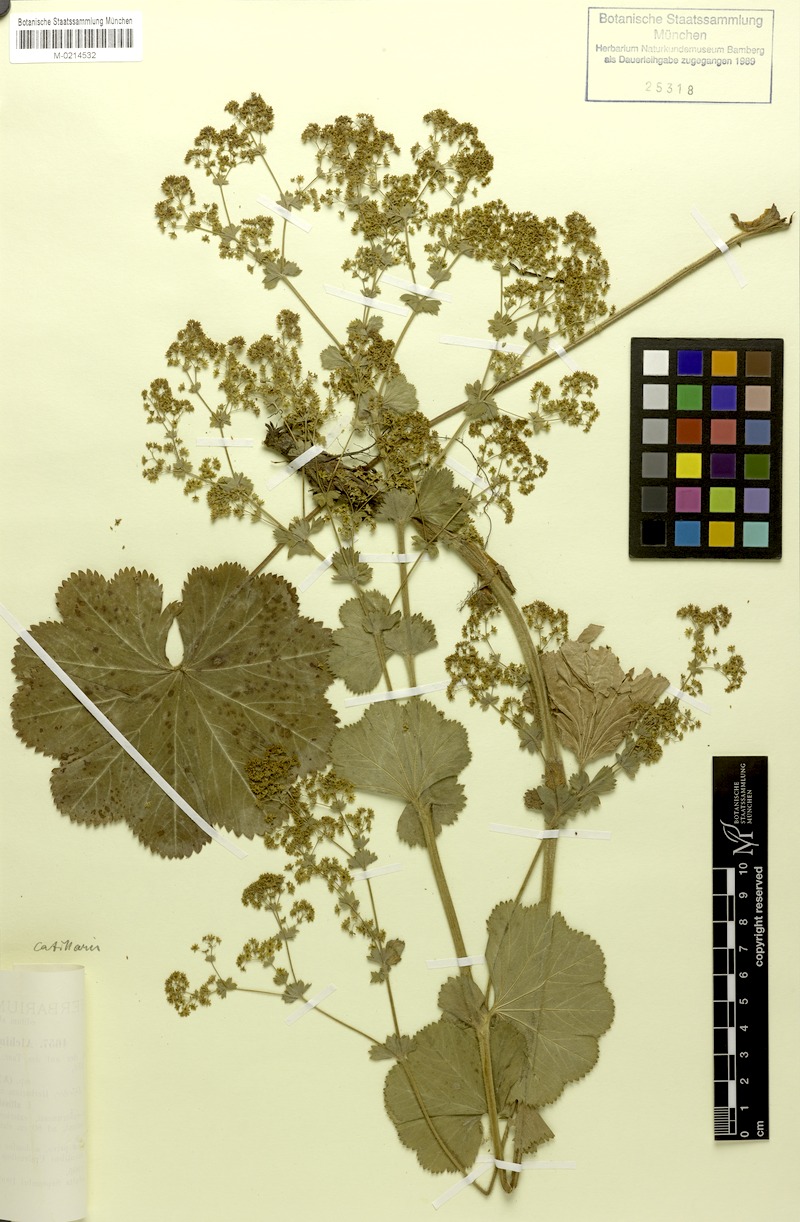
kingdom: Plantae
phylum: Tracheophyta
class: Magnoliopsida
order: Rosales
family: Rosaceae
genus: Alchemilla
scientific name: Alchemilla mollis
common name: Lady's-mantle
